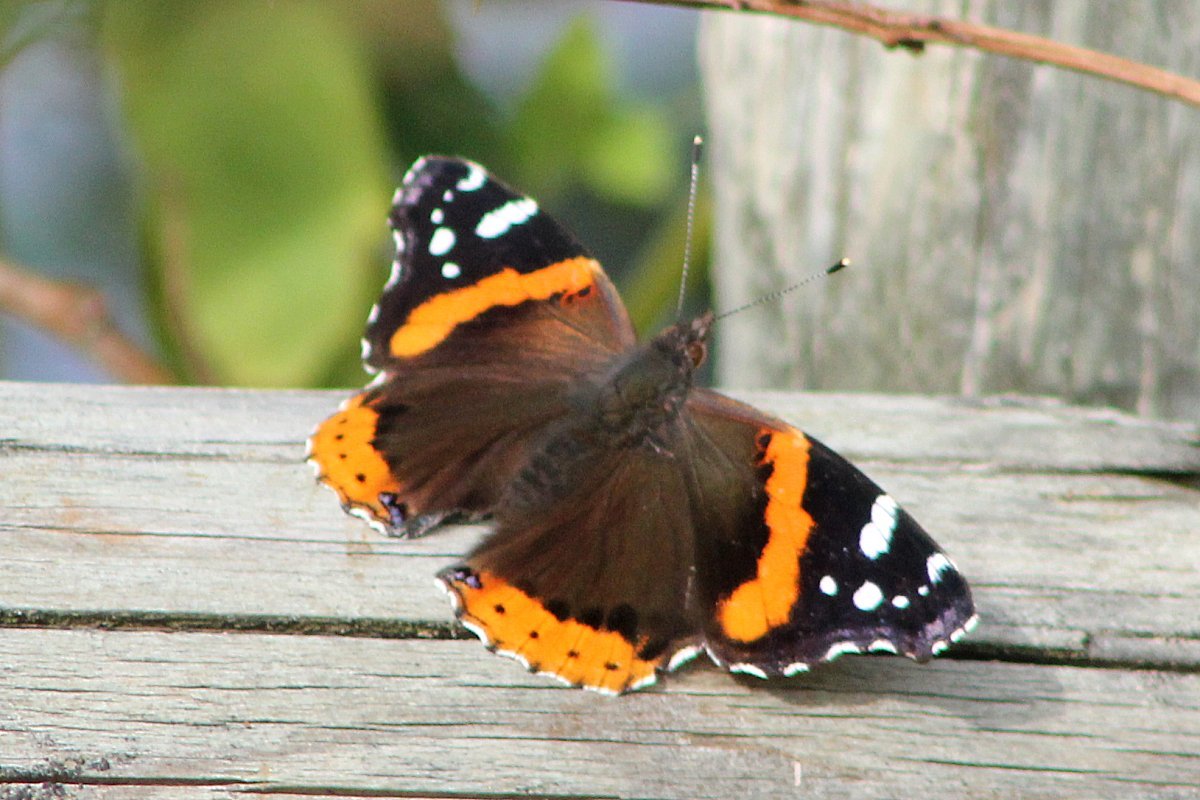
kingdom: Animalia
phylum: Arthropoda
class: Insecta
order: Lepidoptera
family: Nymphalidae
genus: Vanessa
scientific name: Vanessa atalanta
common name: Red Admiral
